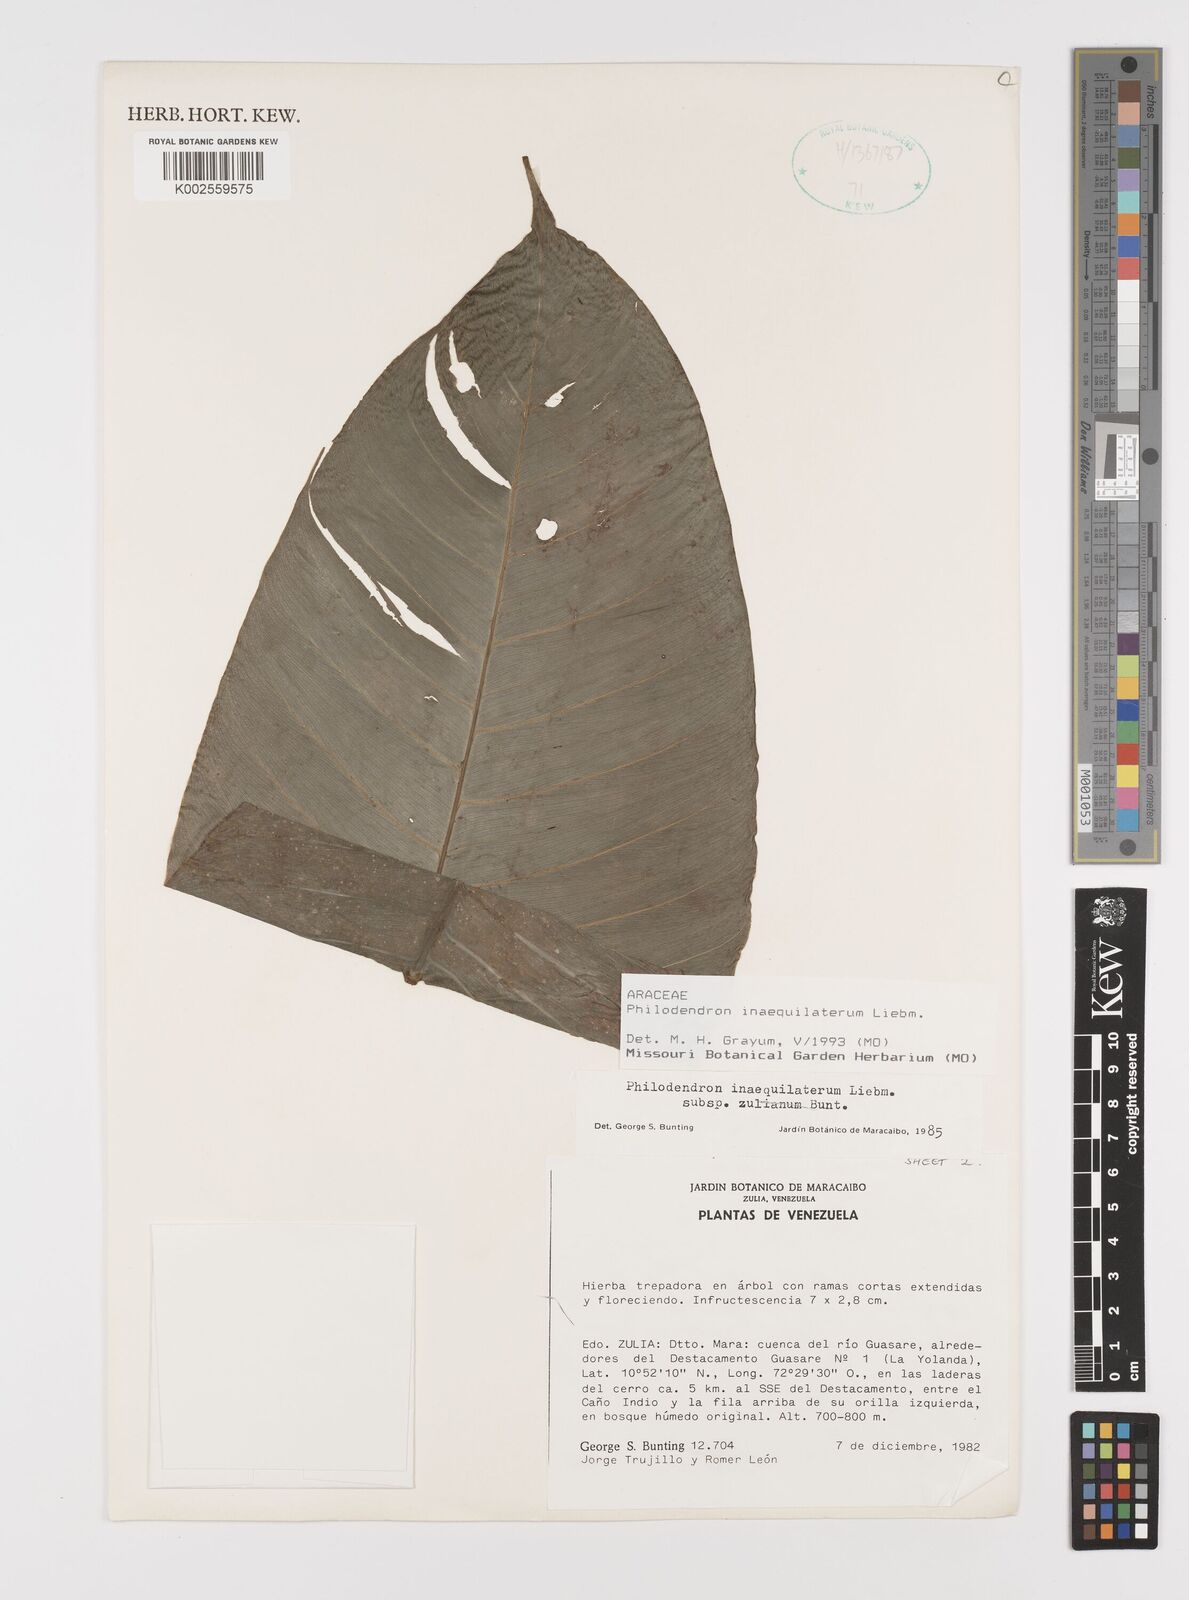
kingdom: Plantae
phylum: Tracheophyta
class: Liliopsida
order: Alismatales
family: Araceae
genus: Philodendron
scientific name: Philodendron inaequilaterum
